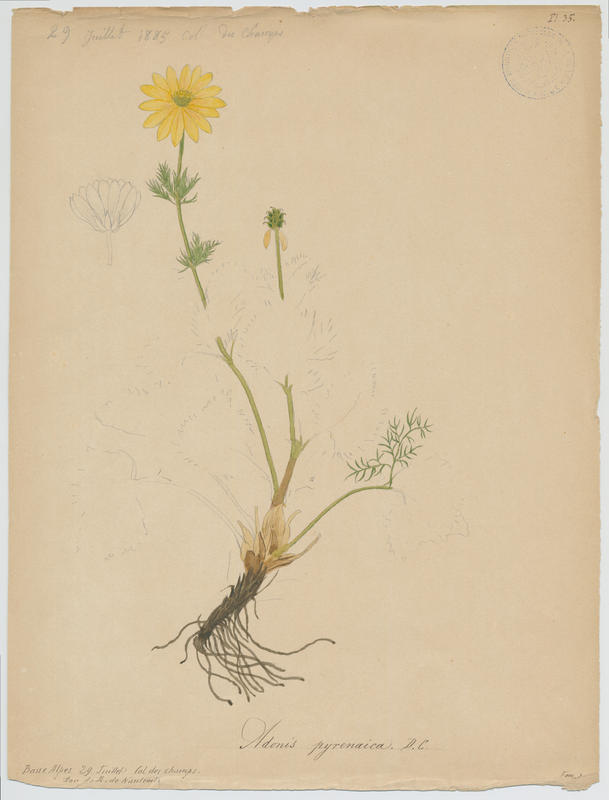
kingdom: Plantae
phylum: Tracheophyta
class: Magnoliopsida
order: Ranunculales
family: Ranunculaceae
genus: Adonis
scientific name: Adonis pyrenaica
